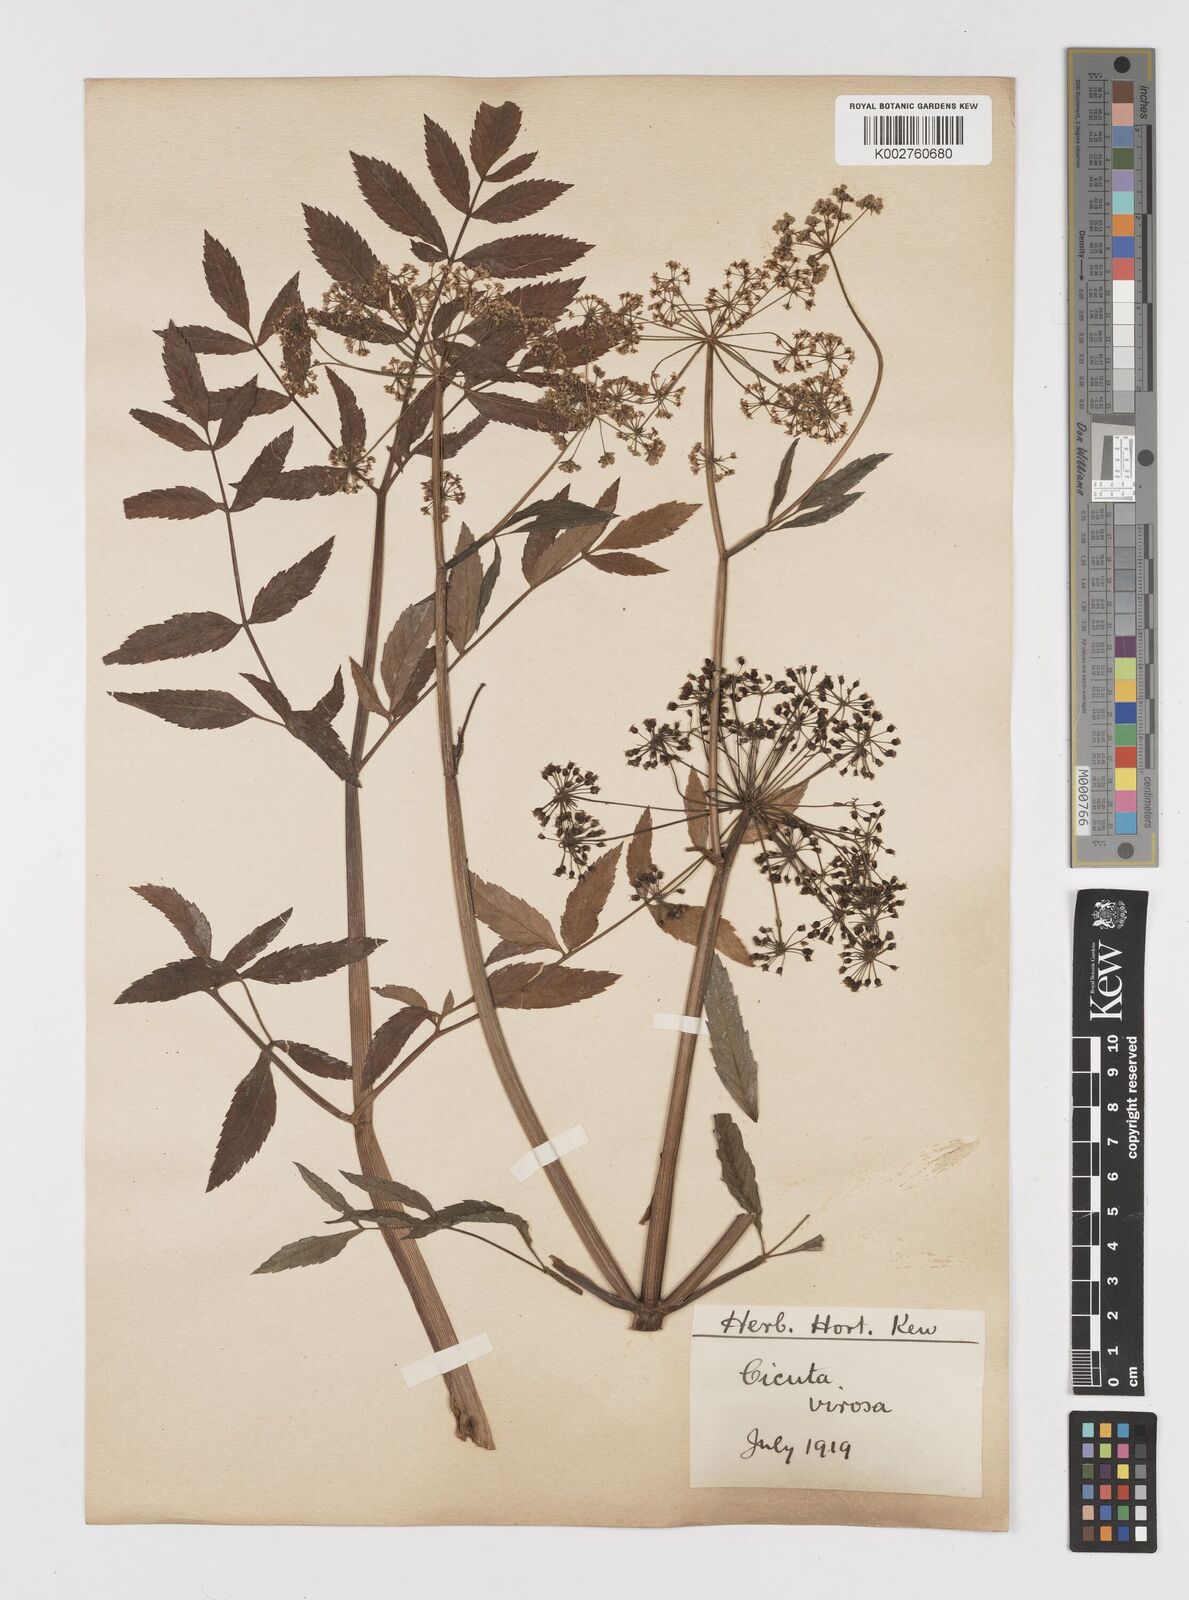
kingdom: Plantae
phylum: Tracheophyta
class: Magnoliopsida
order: Apiales
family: Apiaceae
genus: Cicuta
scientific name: Cicuta virosa
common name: Cowbane
